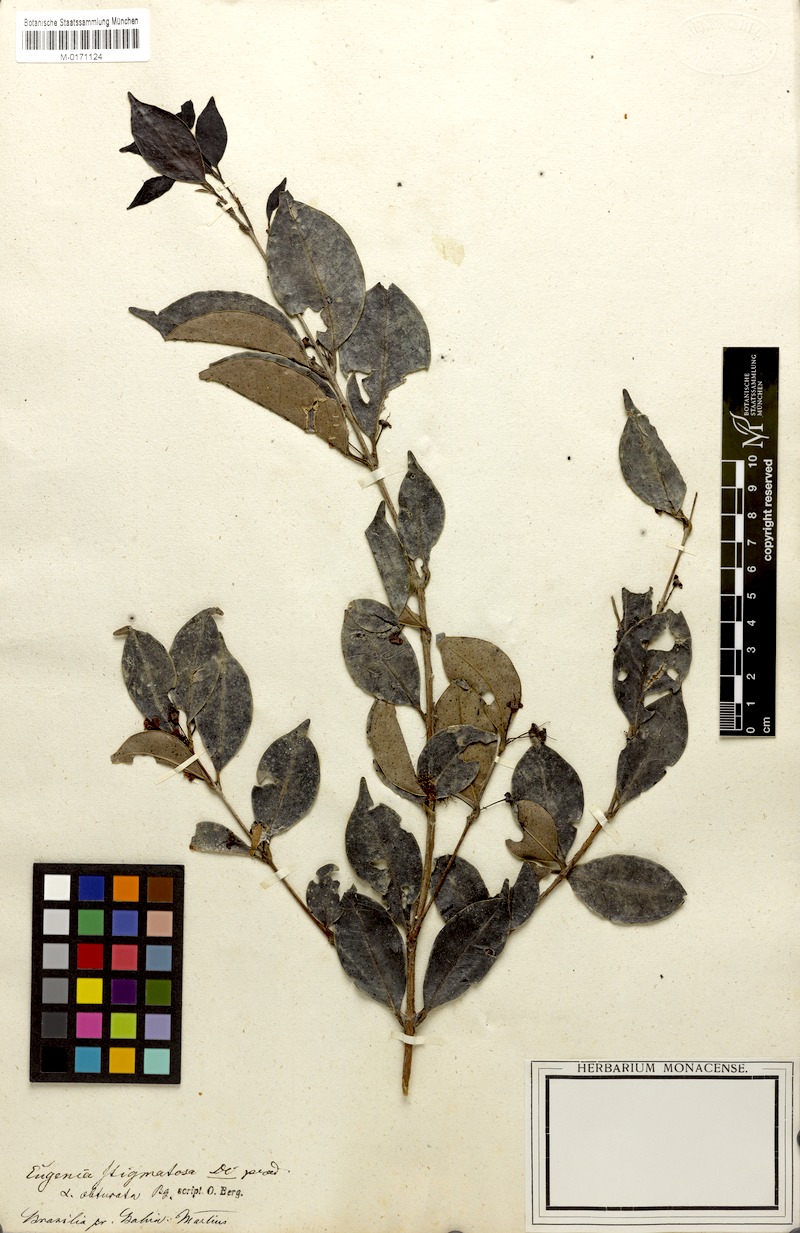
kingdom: Plantae
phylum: Tracheophyta
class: Magnoliopsida
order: Myrtales
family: Myrtaceae
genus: Eugenia
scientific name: Eugenia stigmatosa
